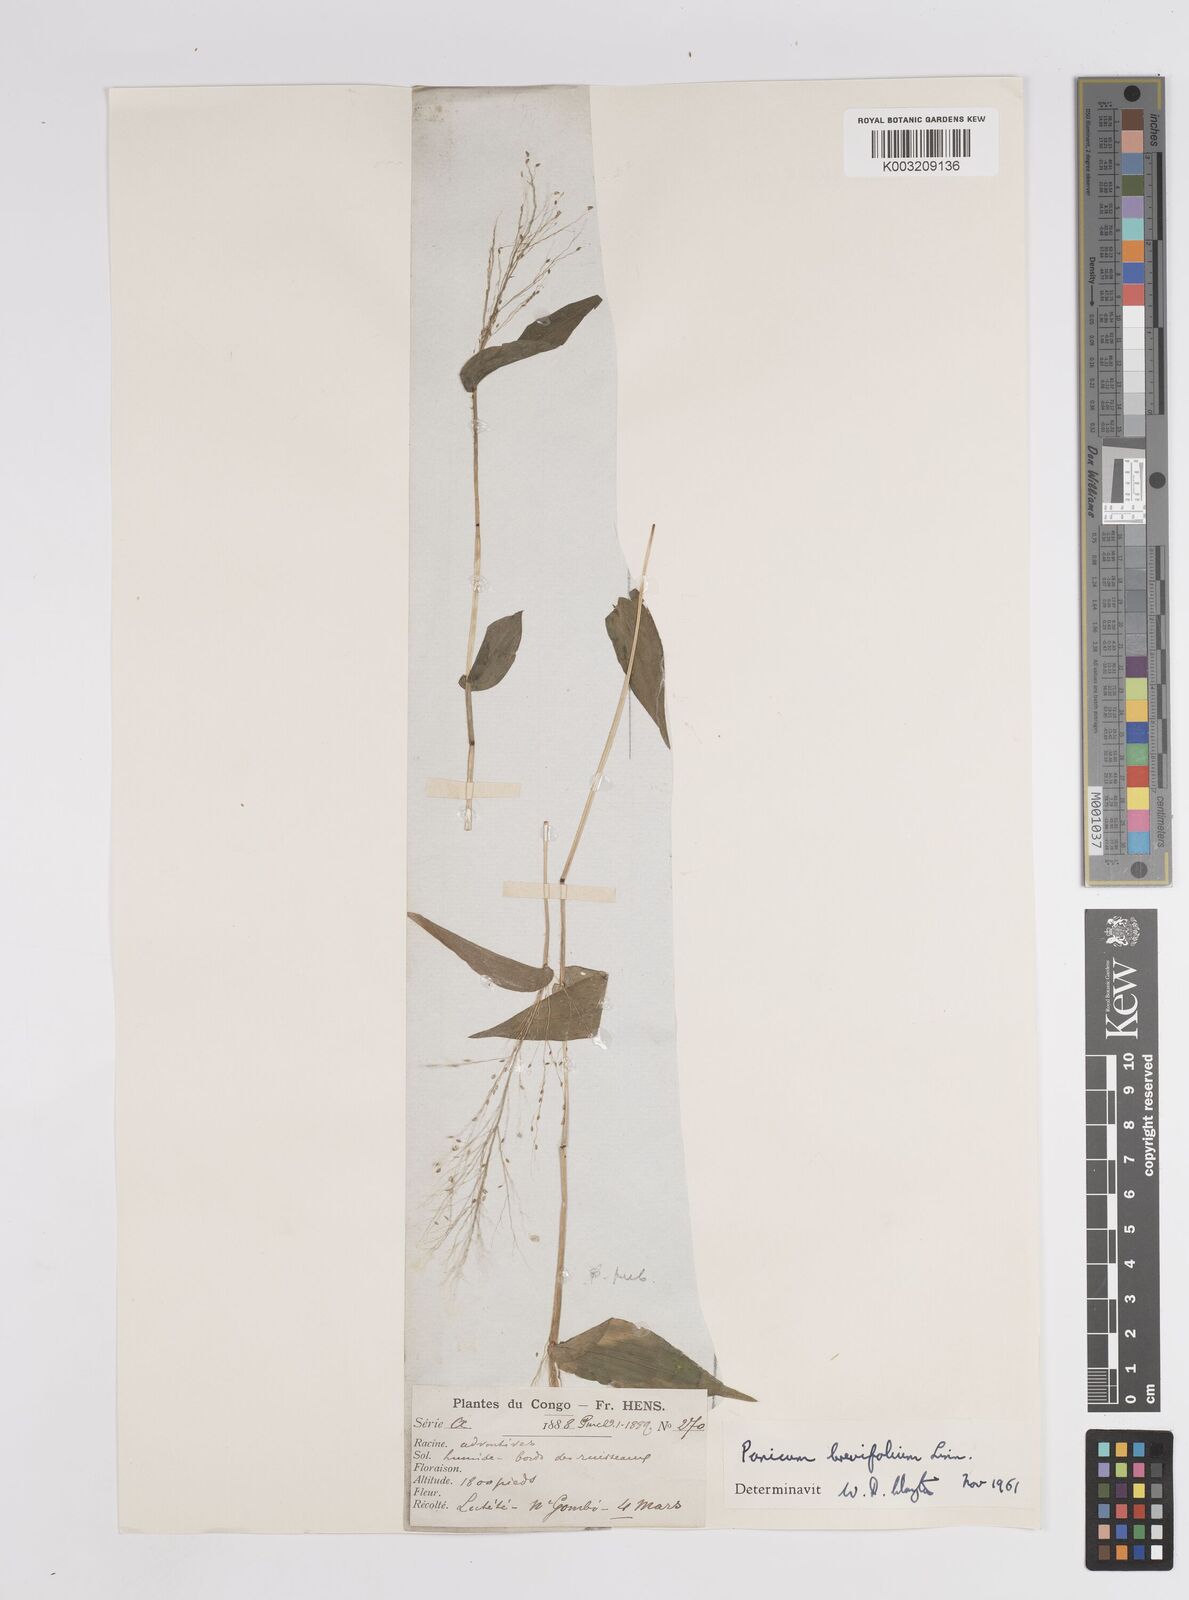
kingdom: Plantae
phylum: Tracheophyta
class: Liliopsida
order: Poales
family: Poaceae
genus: Panicum
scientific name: Panicum brevifolium
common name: Shortleaf panic grass
